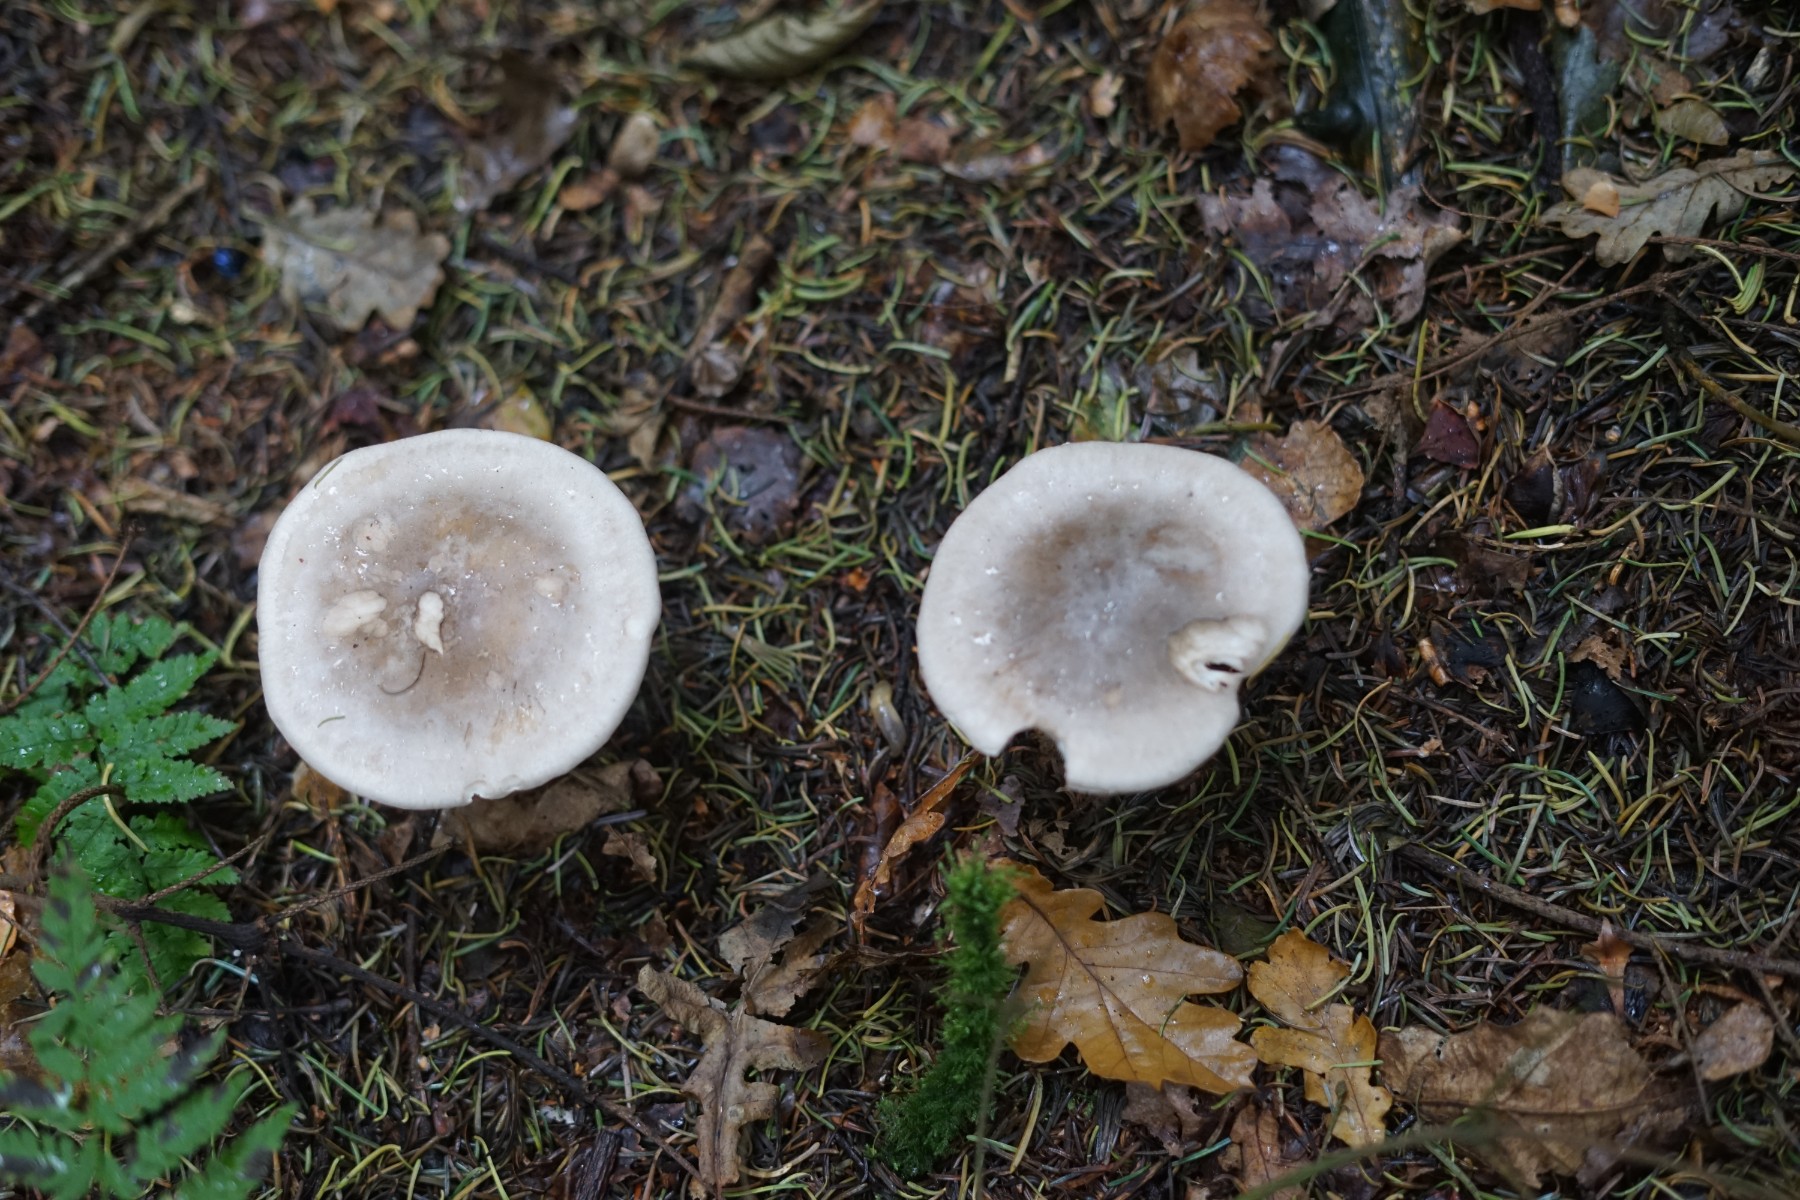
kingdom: Fungi
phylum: Basidiomycota
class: Agaricomycetes
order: Agaricales
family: Tricholomataceae
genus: Clitocybe
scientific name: Clitocybe nebularis
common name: tåge-tragthat
